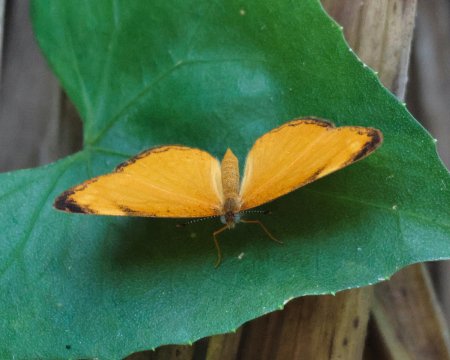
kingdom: Animalia
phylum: Arthropoda
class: Insecta
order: Lepidoptera
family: Nymphalidae
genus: Tegosa
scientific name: Tegosa guatemalena
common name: Guatemalan Crescent
